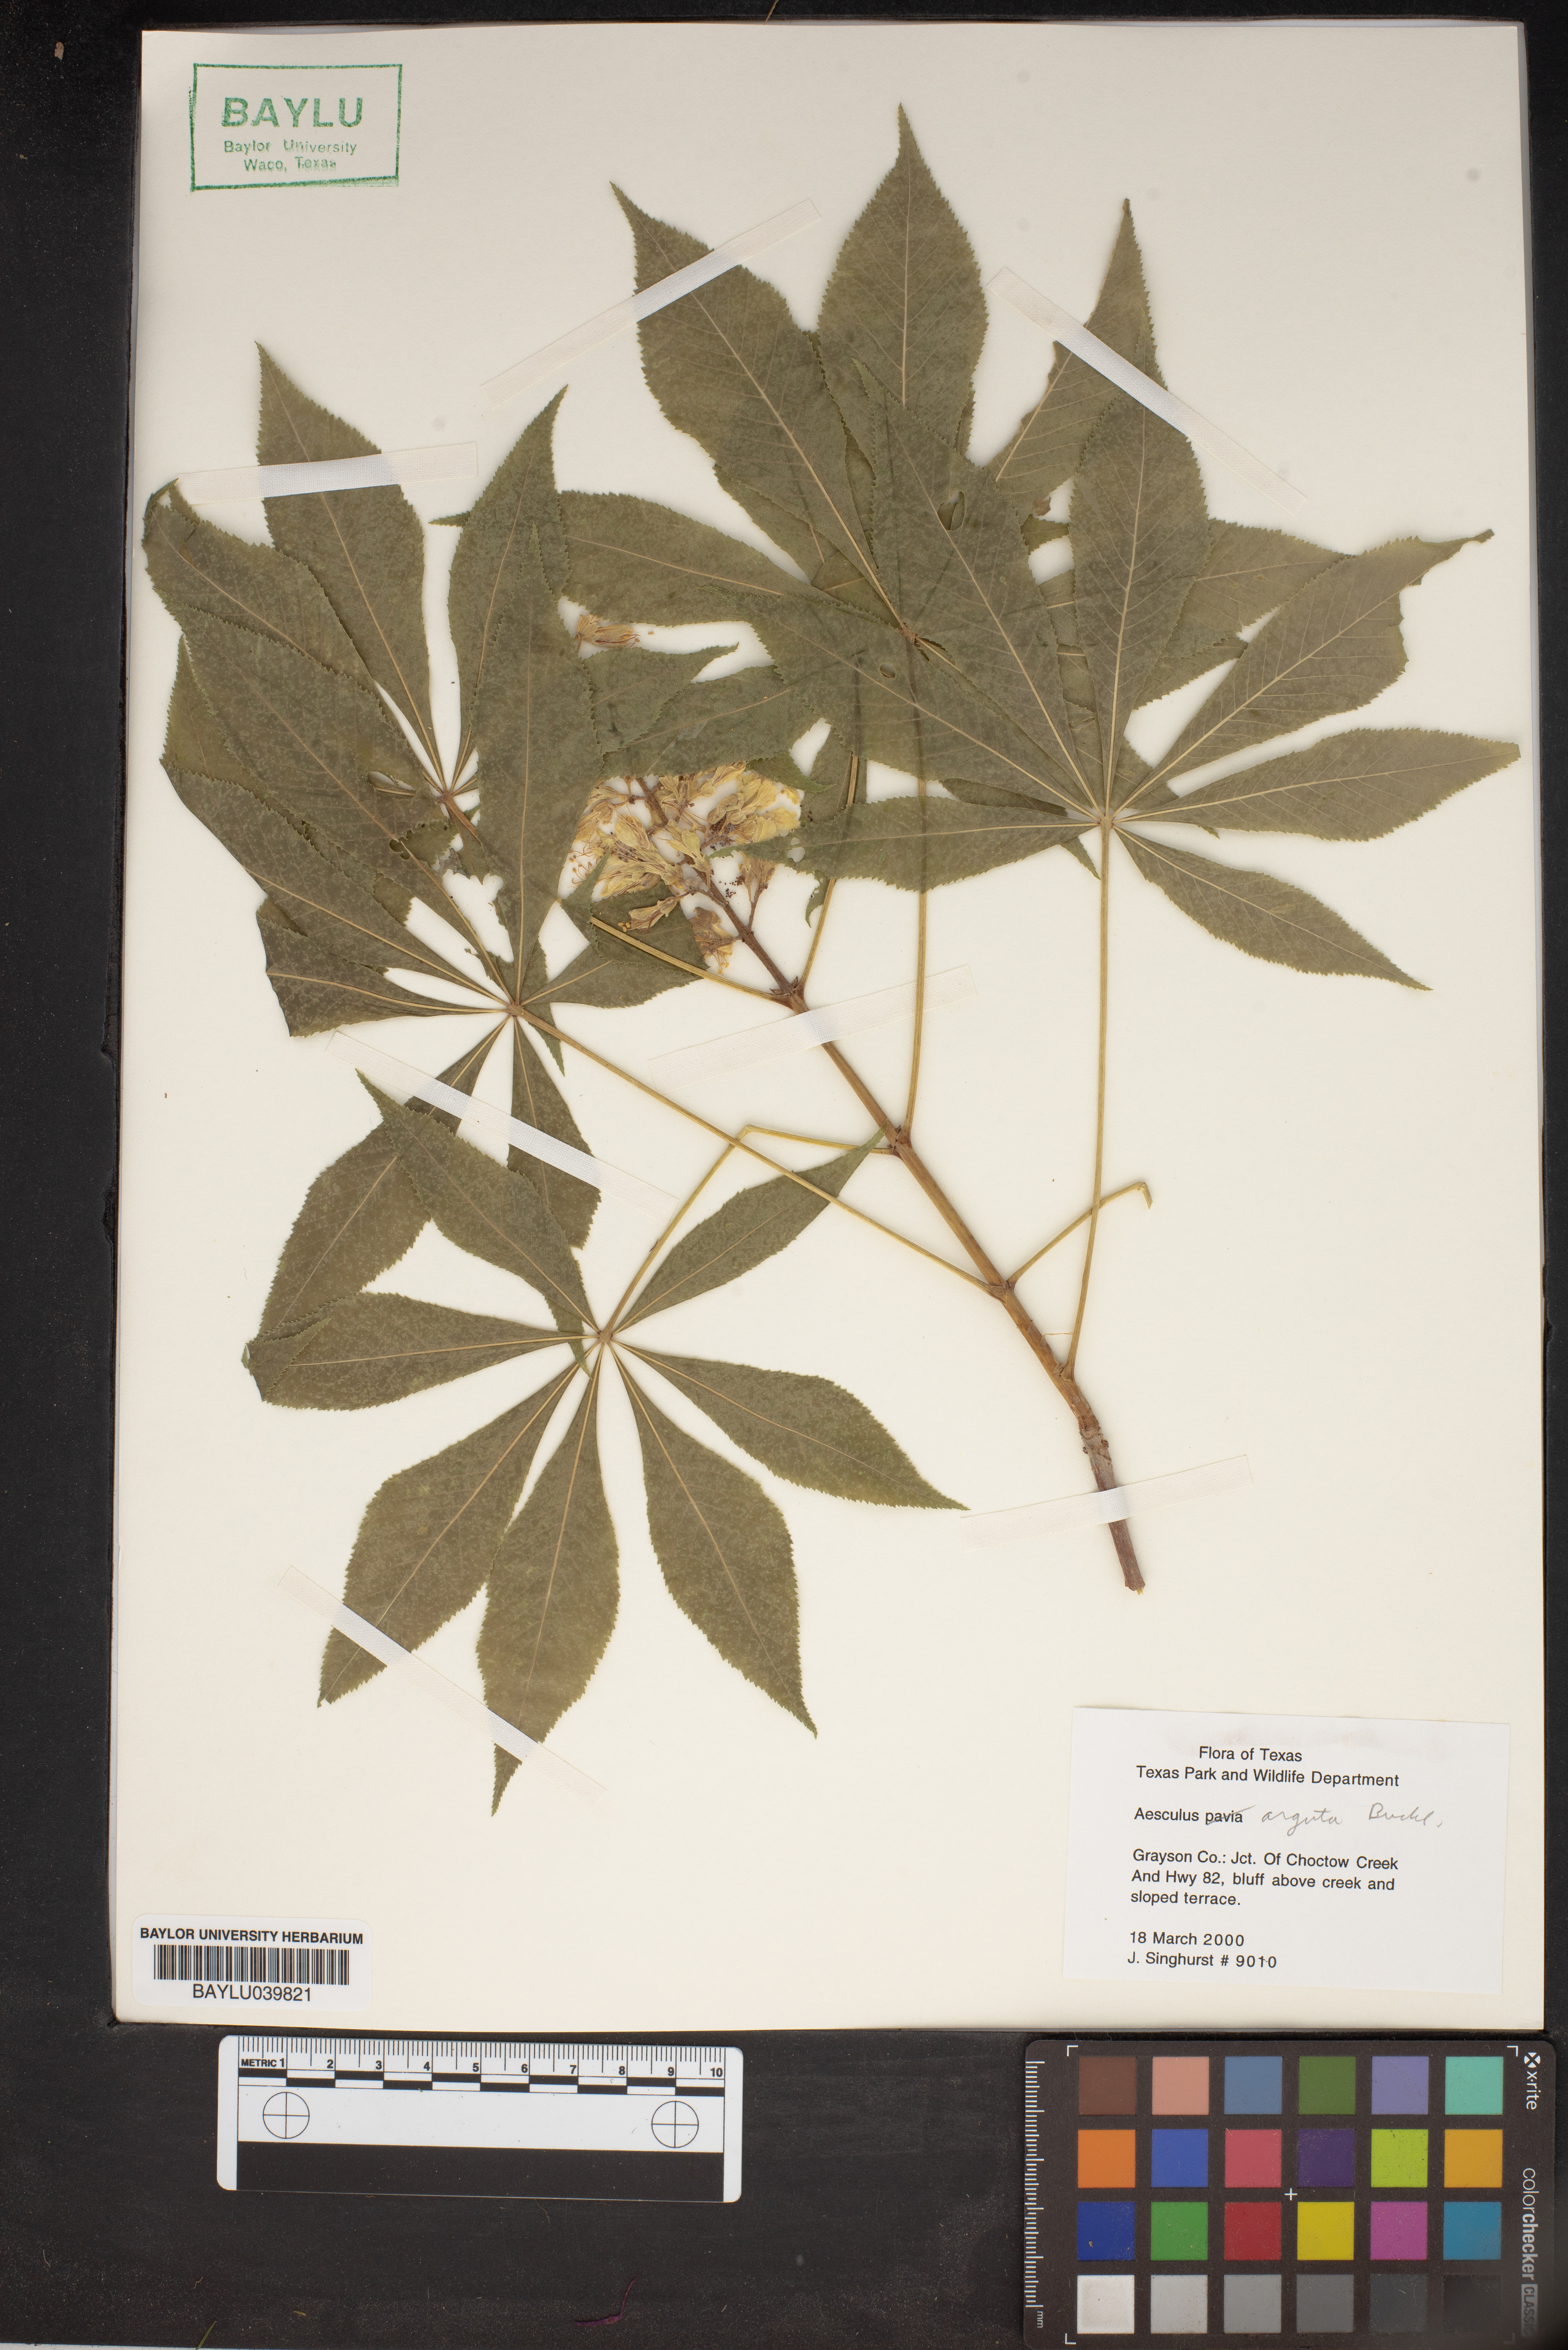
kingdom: Plantae
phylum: Tracheophyta
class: Magnoliopsida
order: Sapindales
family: Sapindaceae
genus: Aesculus
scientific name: Aesculus glabra
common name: Ohio buckeye
